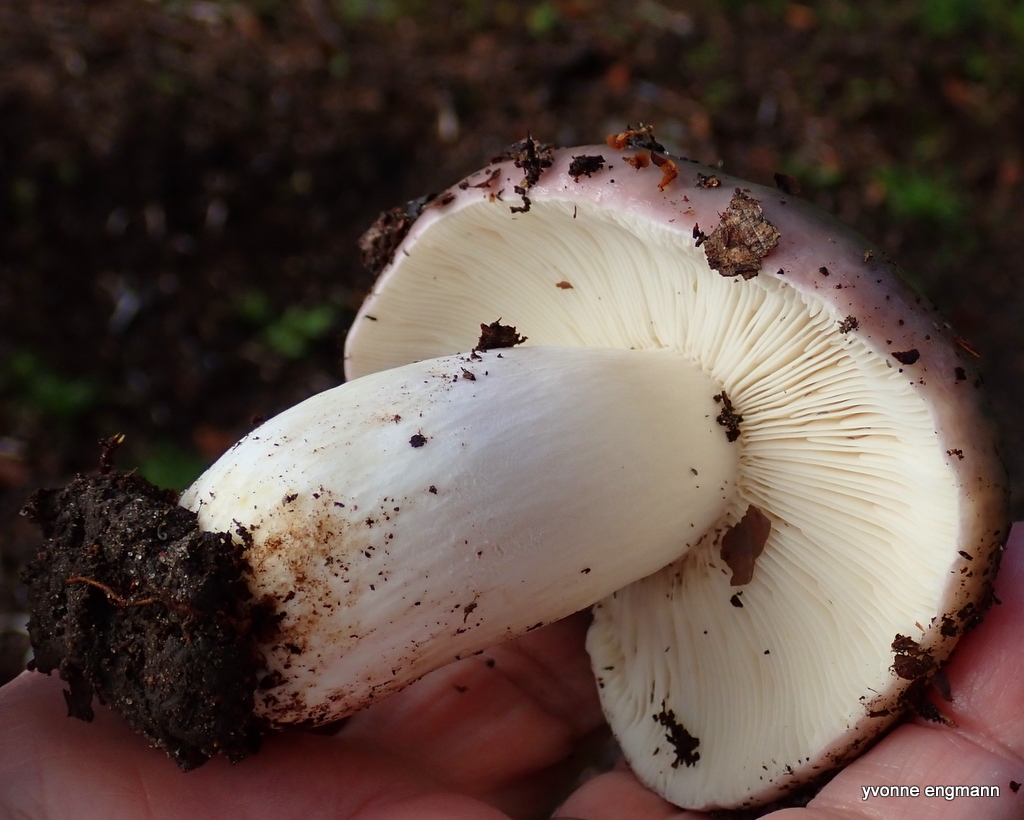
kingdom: Fungi
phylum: Basidiomycota
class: Agaricomycetes
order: Russulales
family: Russulaceae
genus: Russula
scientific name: Russula cyanoxantha
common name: broget skørhat
